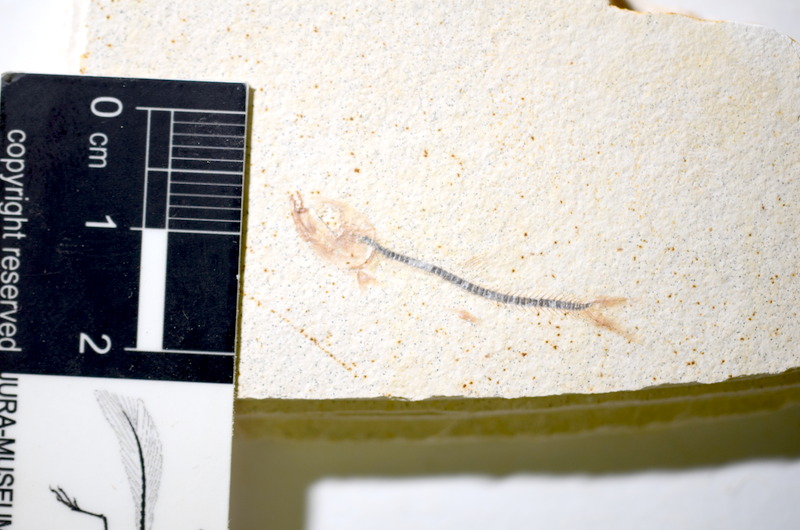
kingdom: Animalia
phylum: Chordata
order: Salmoniformes
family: Orthogonikleithridae
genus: Orthogonikleithrus
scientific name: Orthogonikleithrus hoelli
